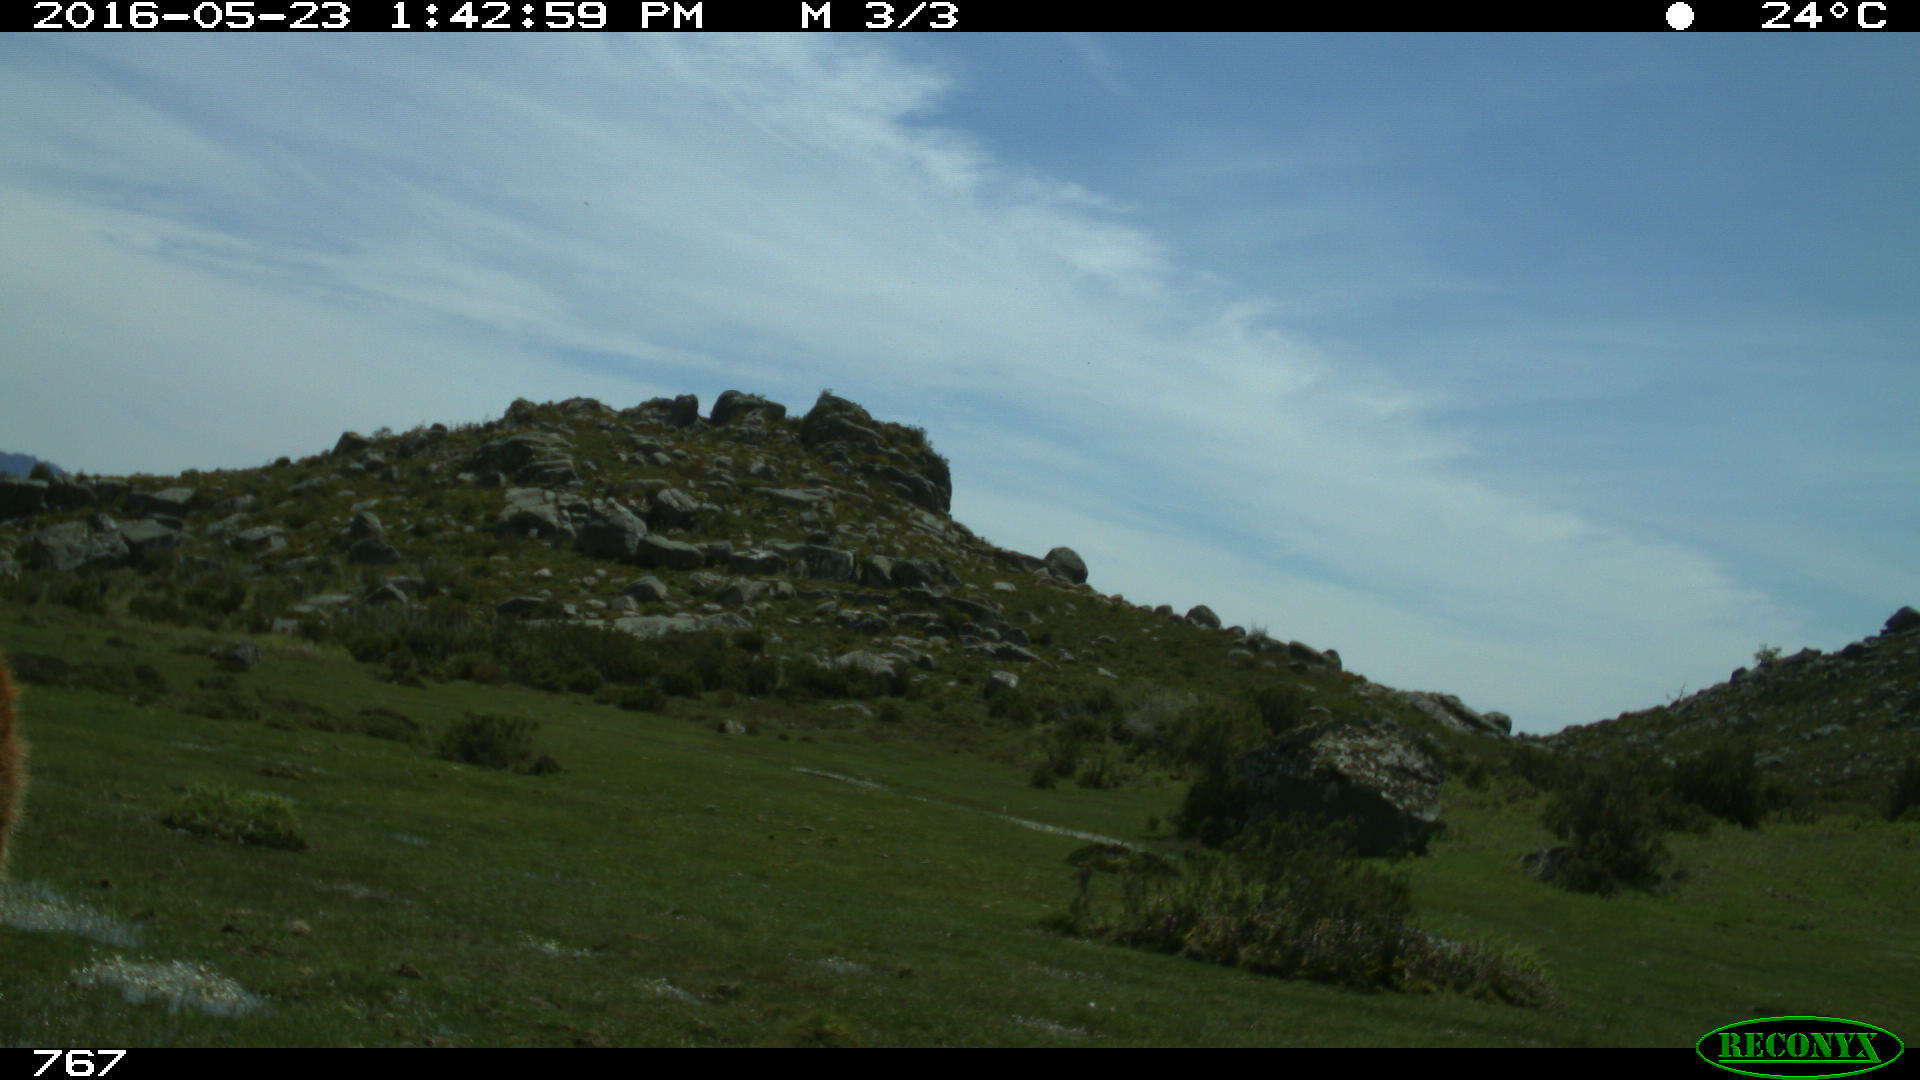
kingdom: Animalia
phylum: Chordata
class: Mammalia
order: Artiodactyla
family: Bovidae
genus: Bos
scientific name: Bos taurus
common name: Domesticated cattle
